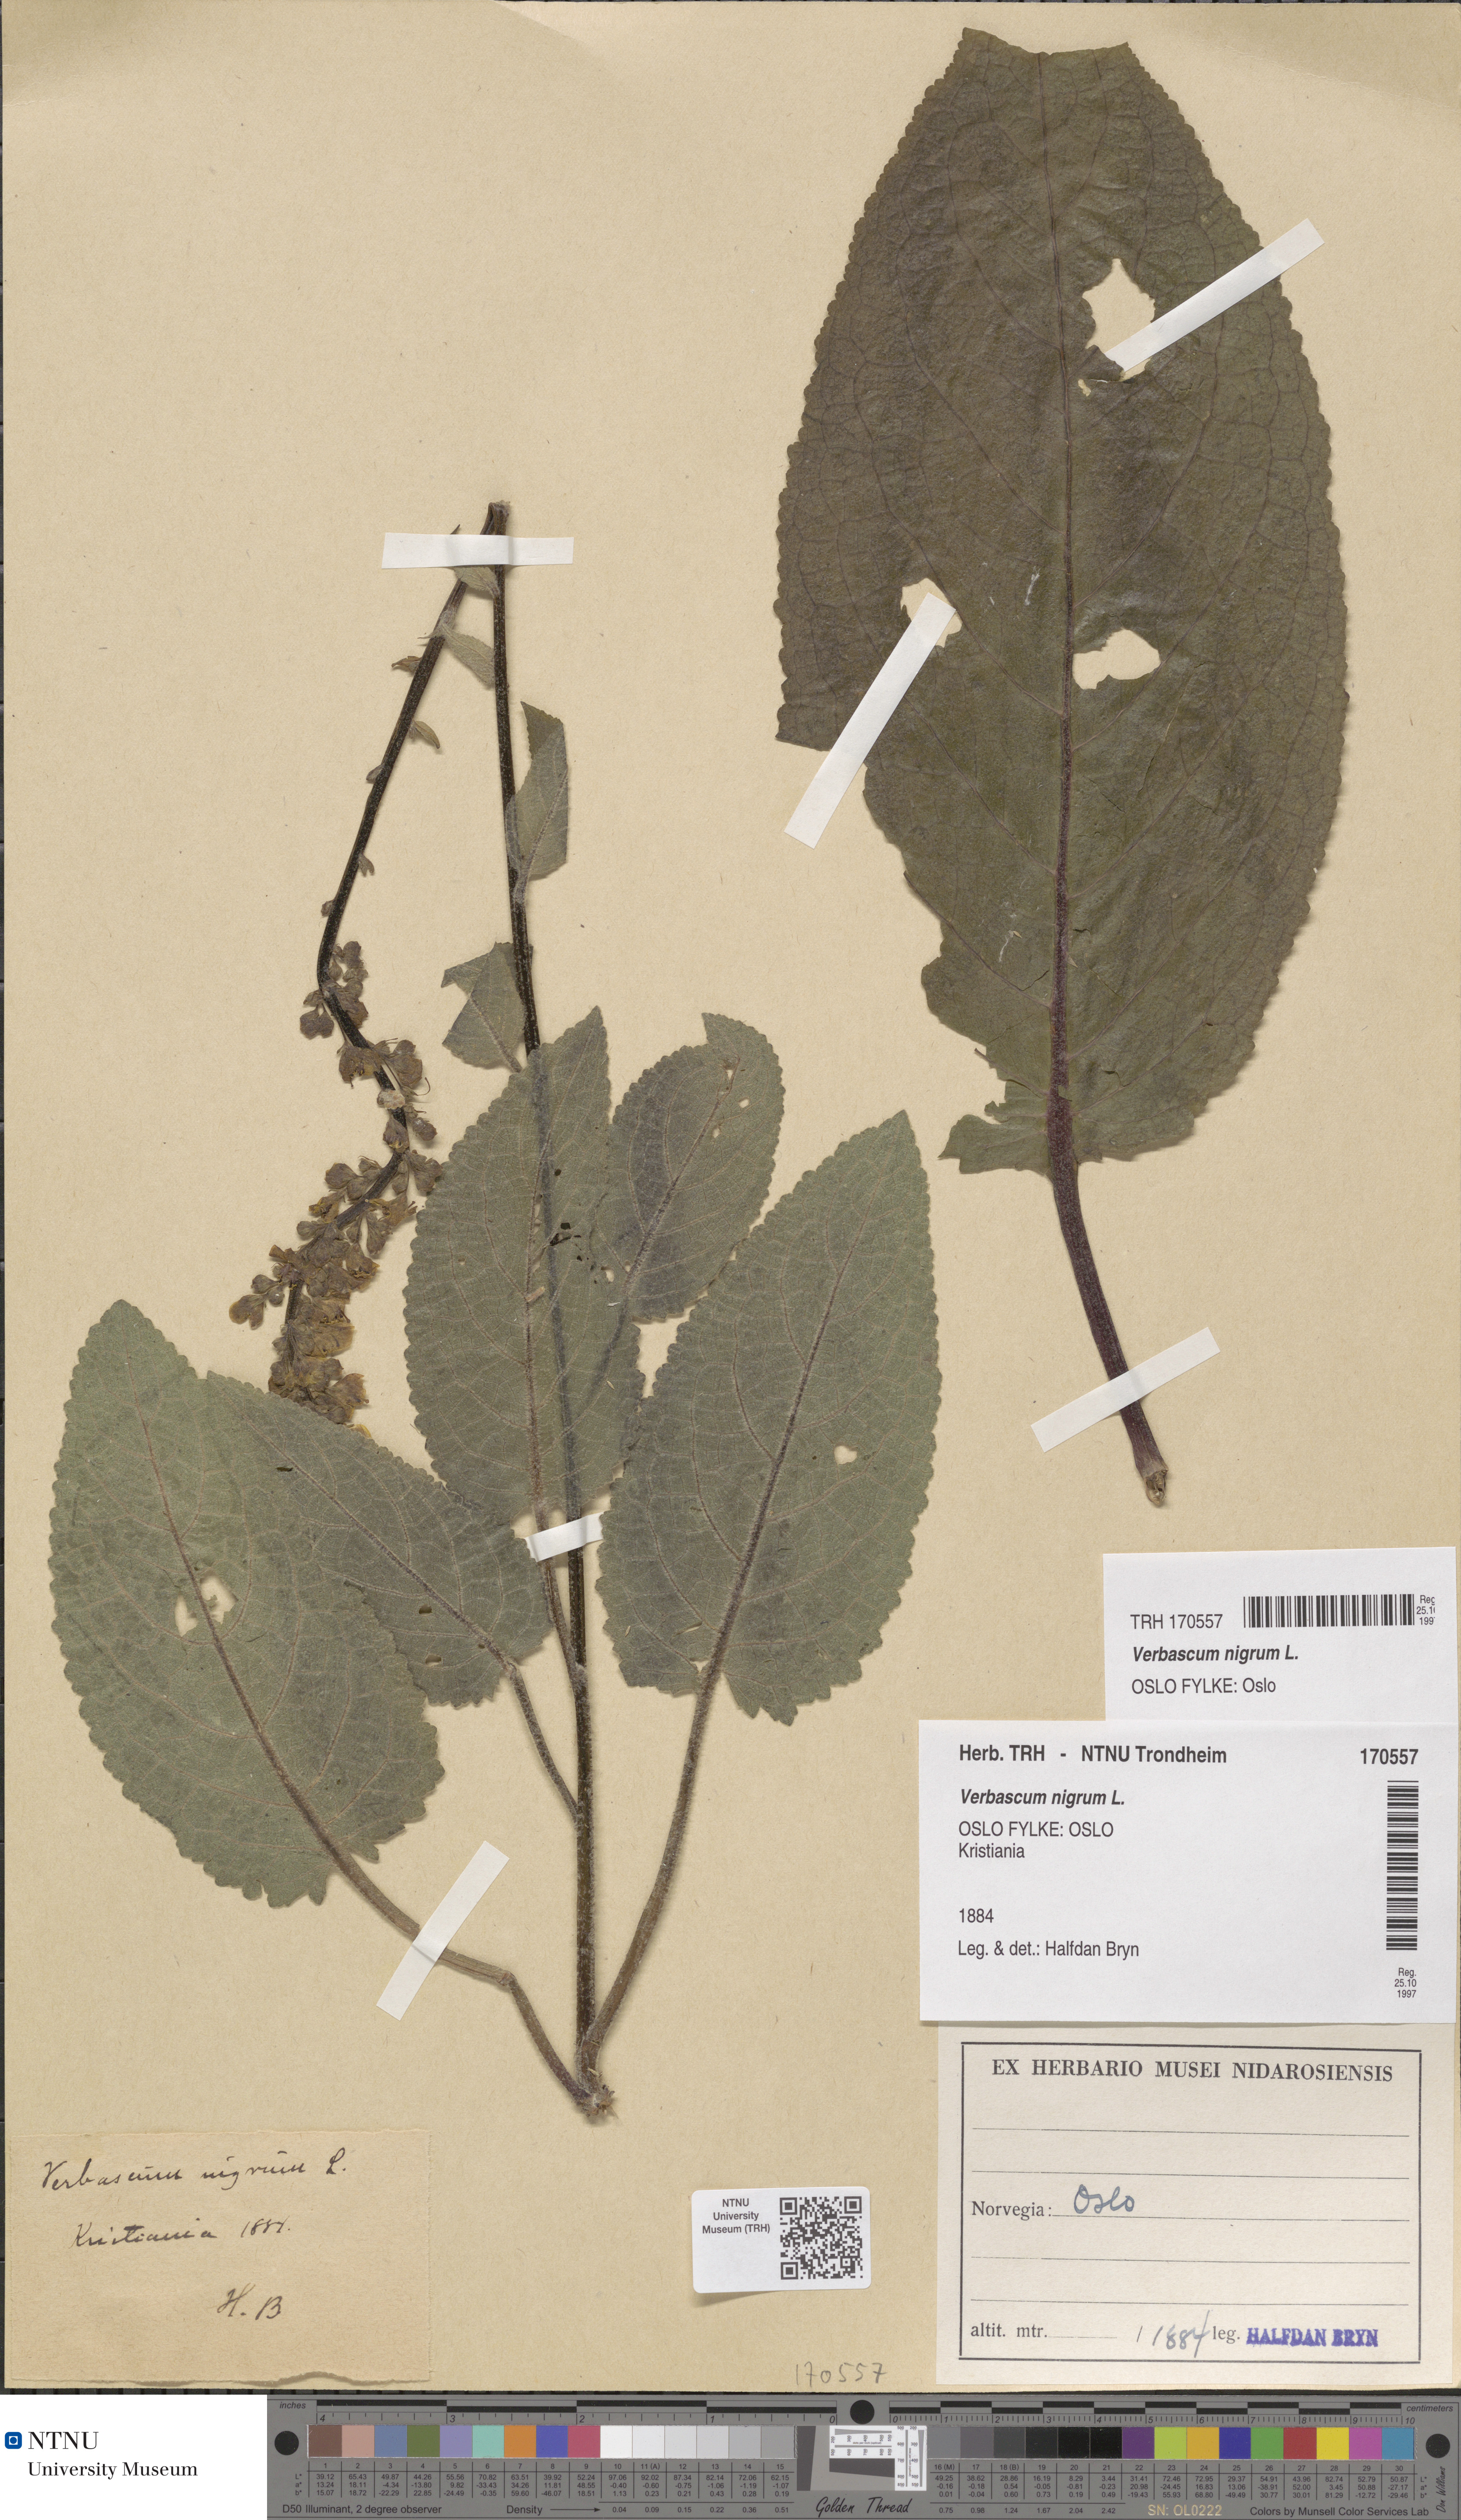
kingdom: Plantae
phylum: Tracheophyta
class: Magnoliopsida
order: Lamiales
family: Scrophulariaceae
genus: Verbascum
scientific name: Verbascum nigrum
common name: Dark mullein
